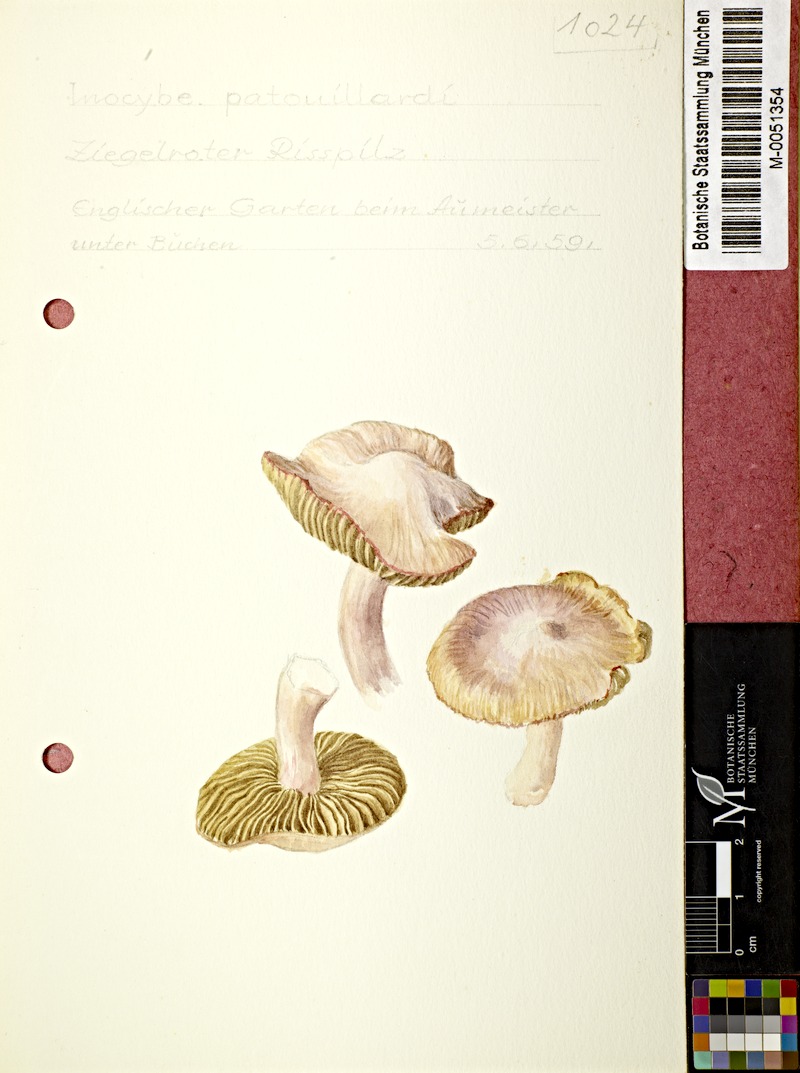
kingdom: Fungi
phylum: Basidiomycota
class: Agaricomycetes
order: Agaricales
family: Inocybaceae
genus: Inosperma
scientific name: Inosperma erubescens
